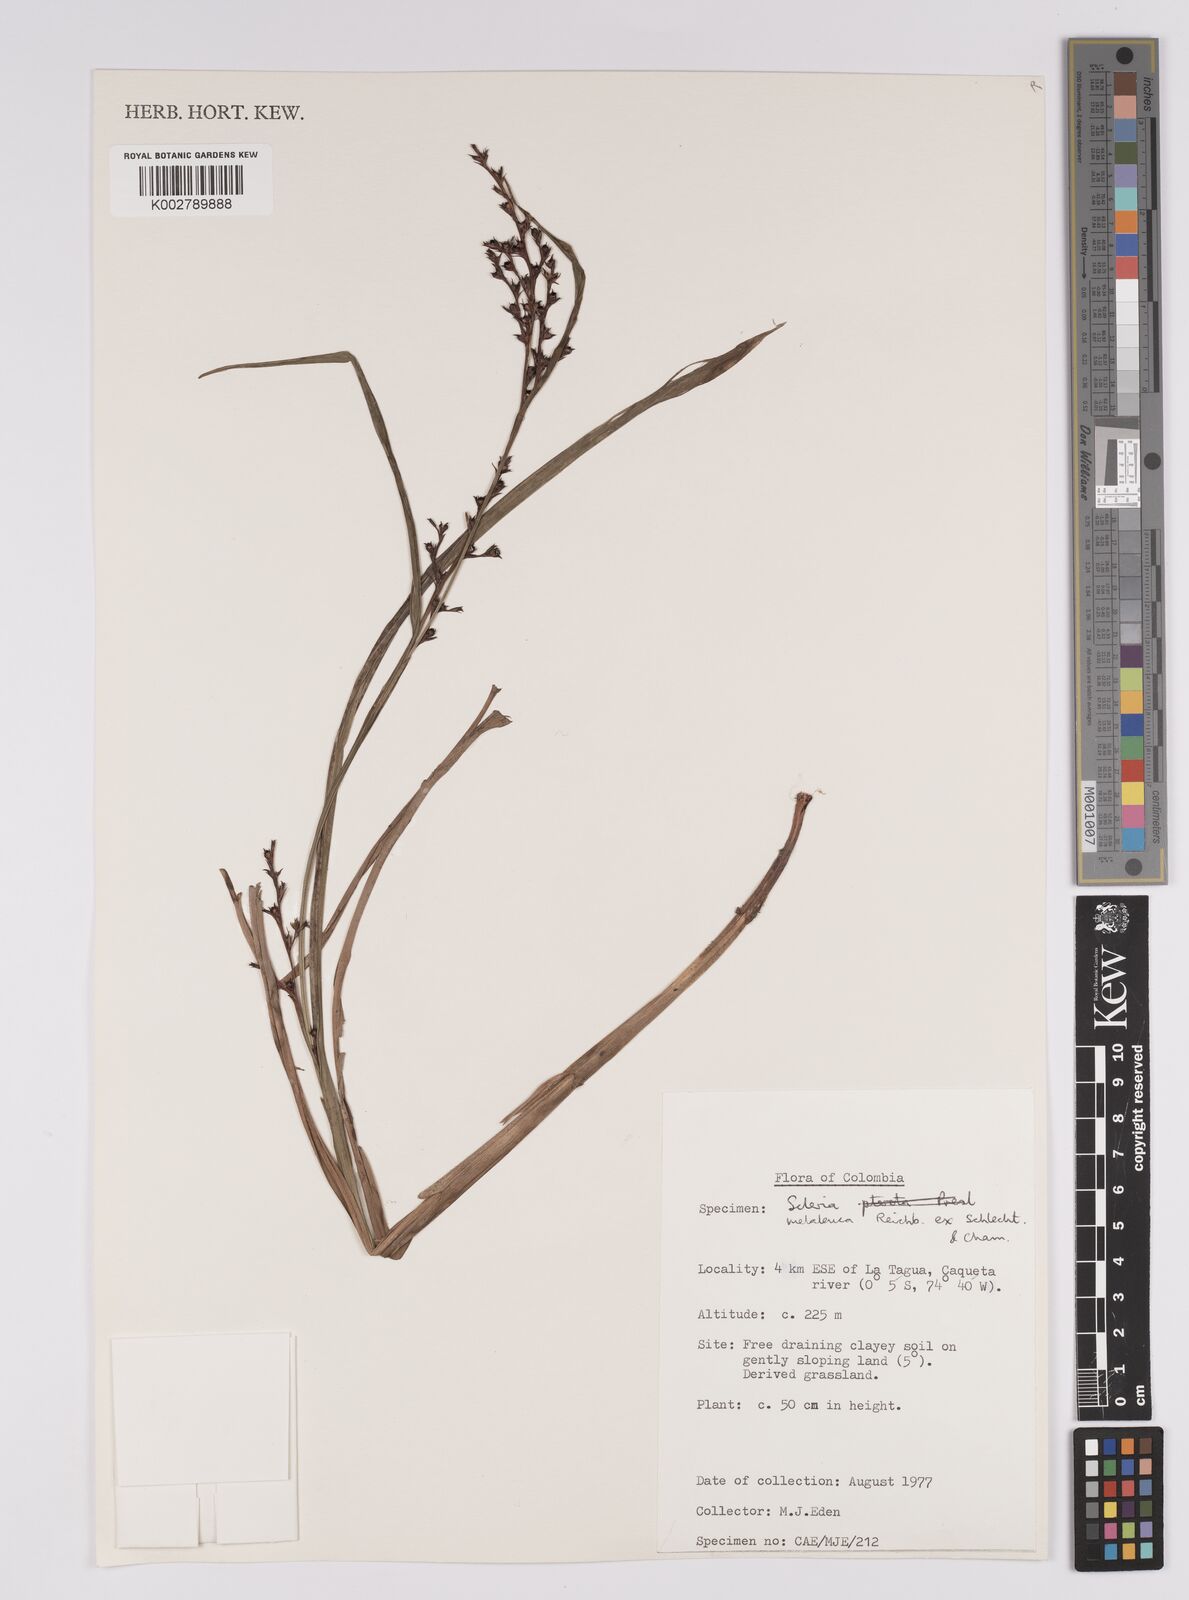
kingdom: Plantae
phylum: Tracheophyta
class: Liliopsida
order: Poales
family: Cyperaceae
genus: Scleria
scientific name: Scleria gaertneri
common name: Cortadera blanca
